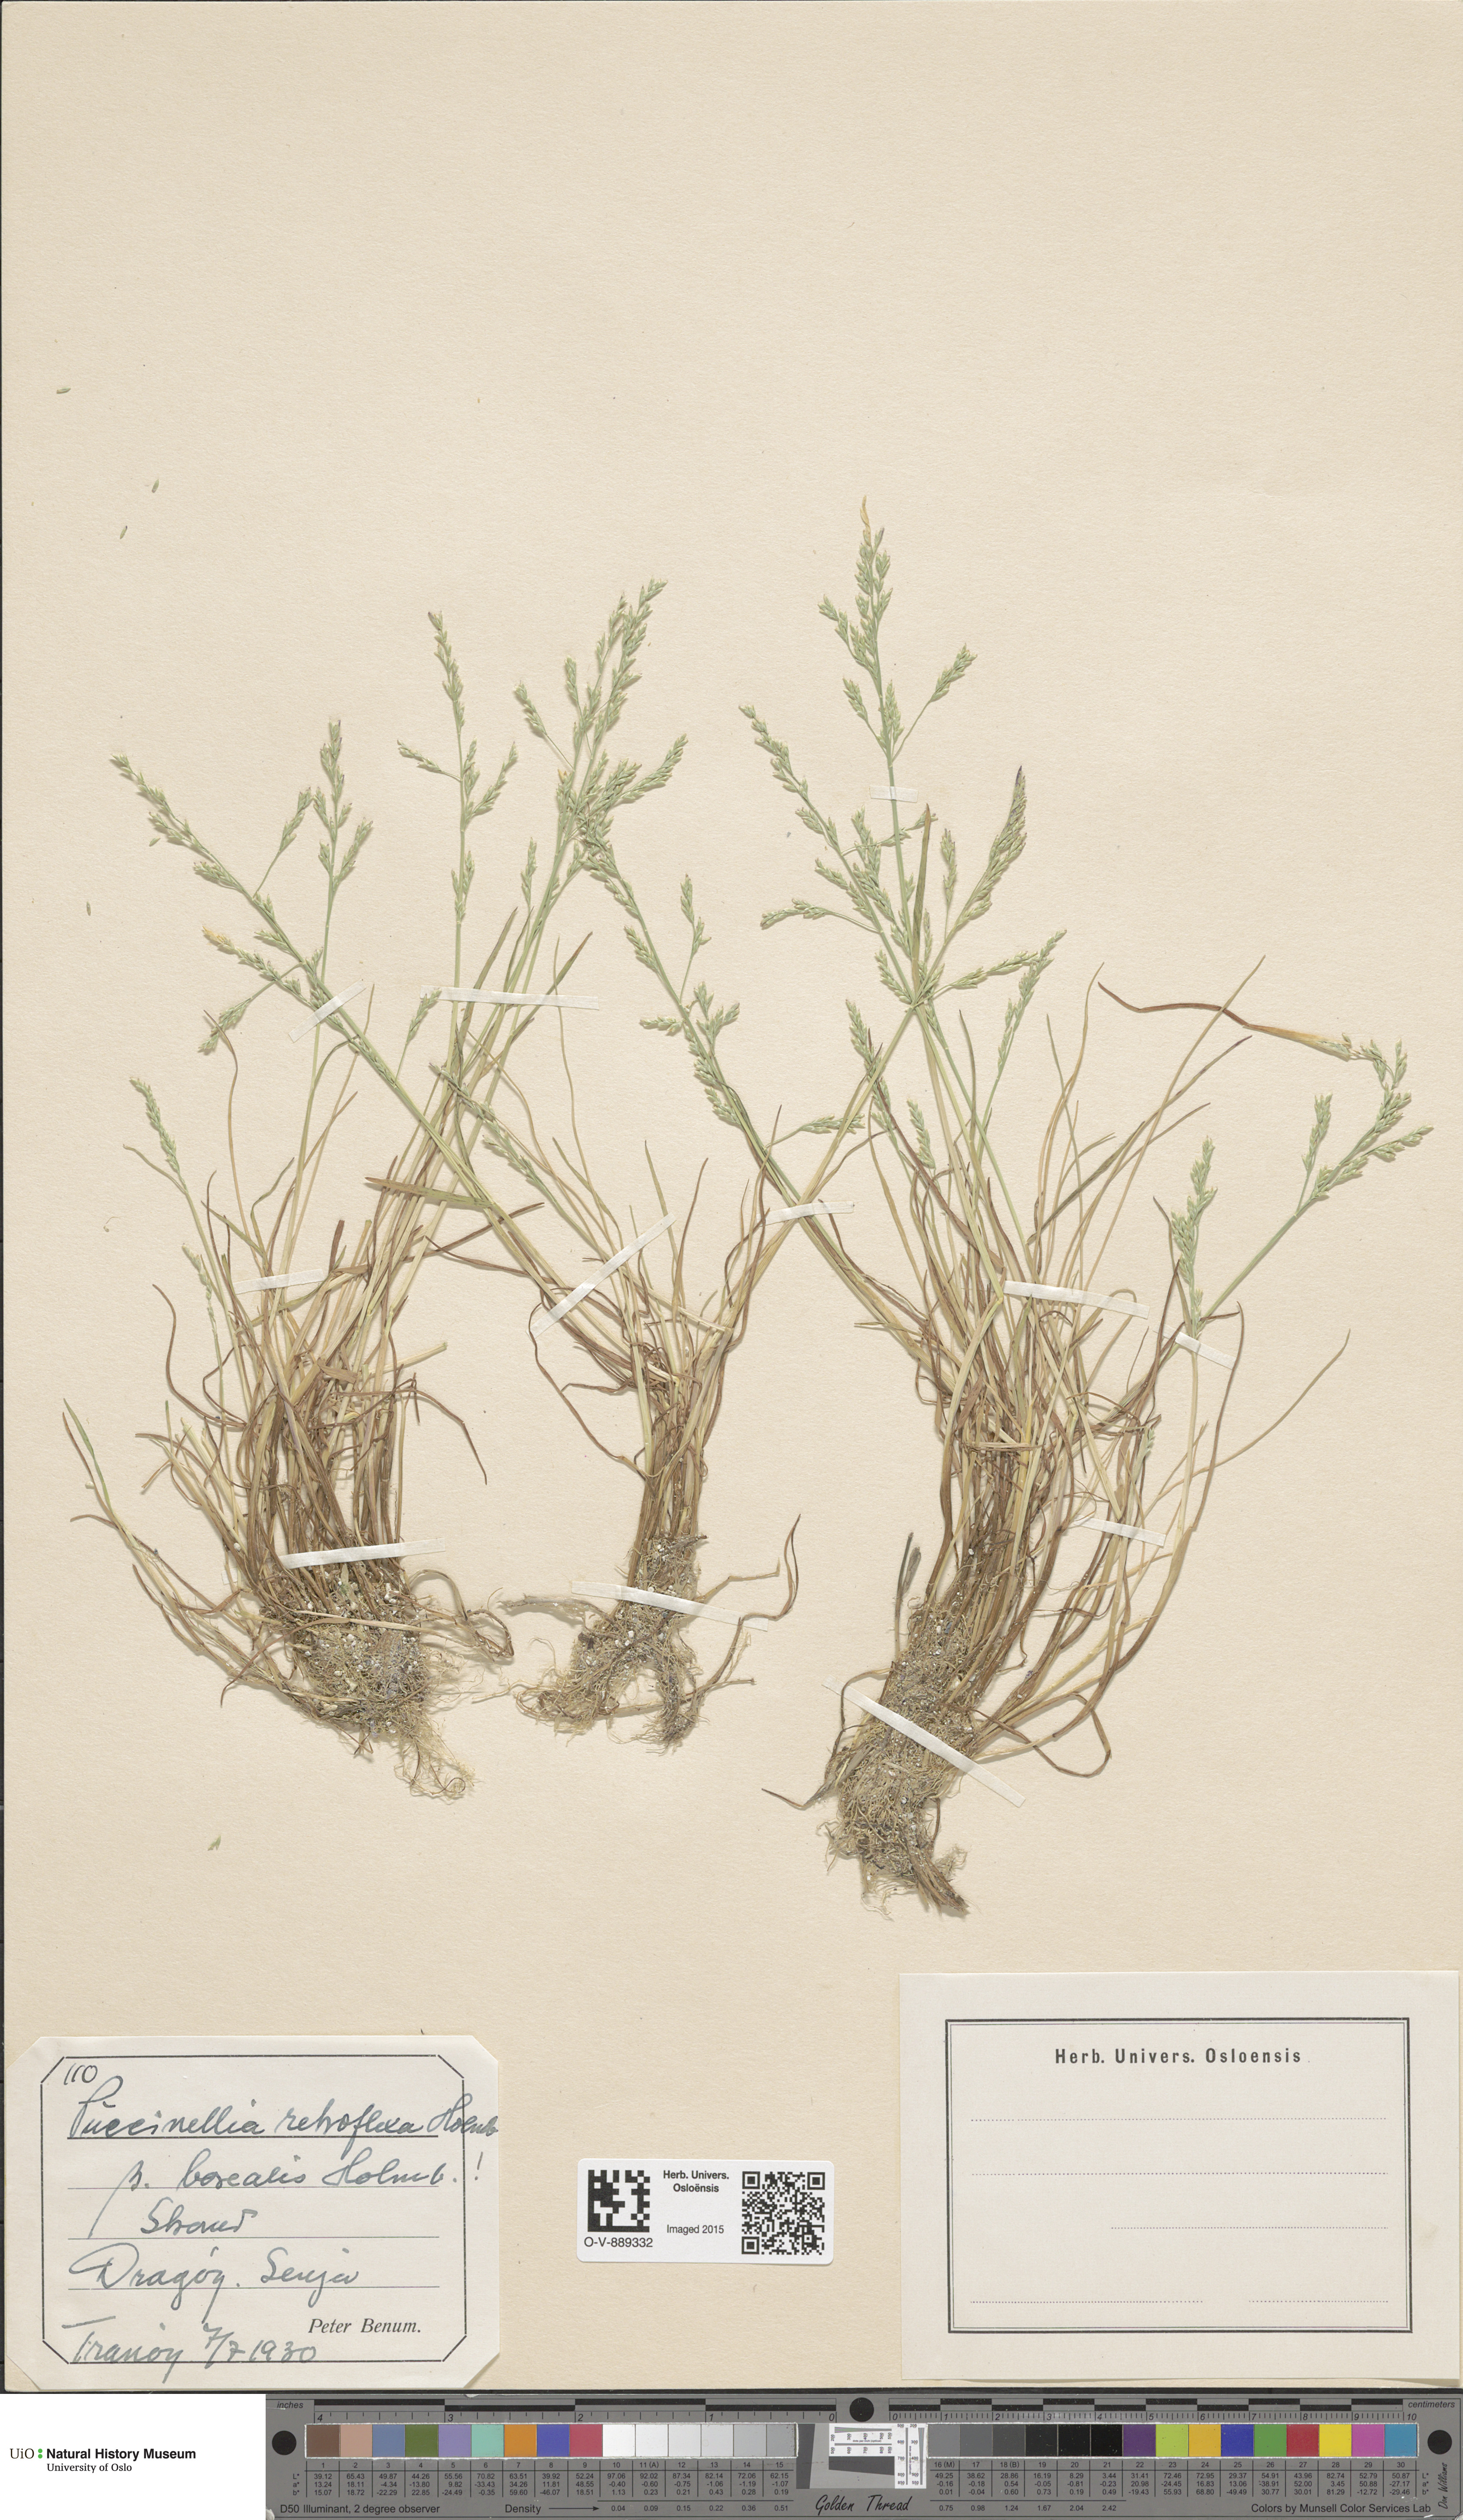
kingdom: Plantae
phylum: Tracheophyta
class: Liliopsida
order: Poales
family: Poaceae
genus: Puccinellia
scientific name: Puccinellia distans
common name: Weeping alkaligrass
